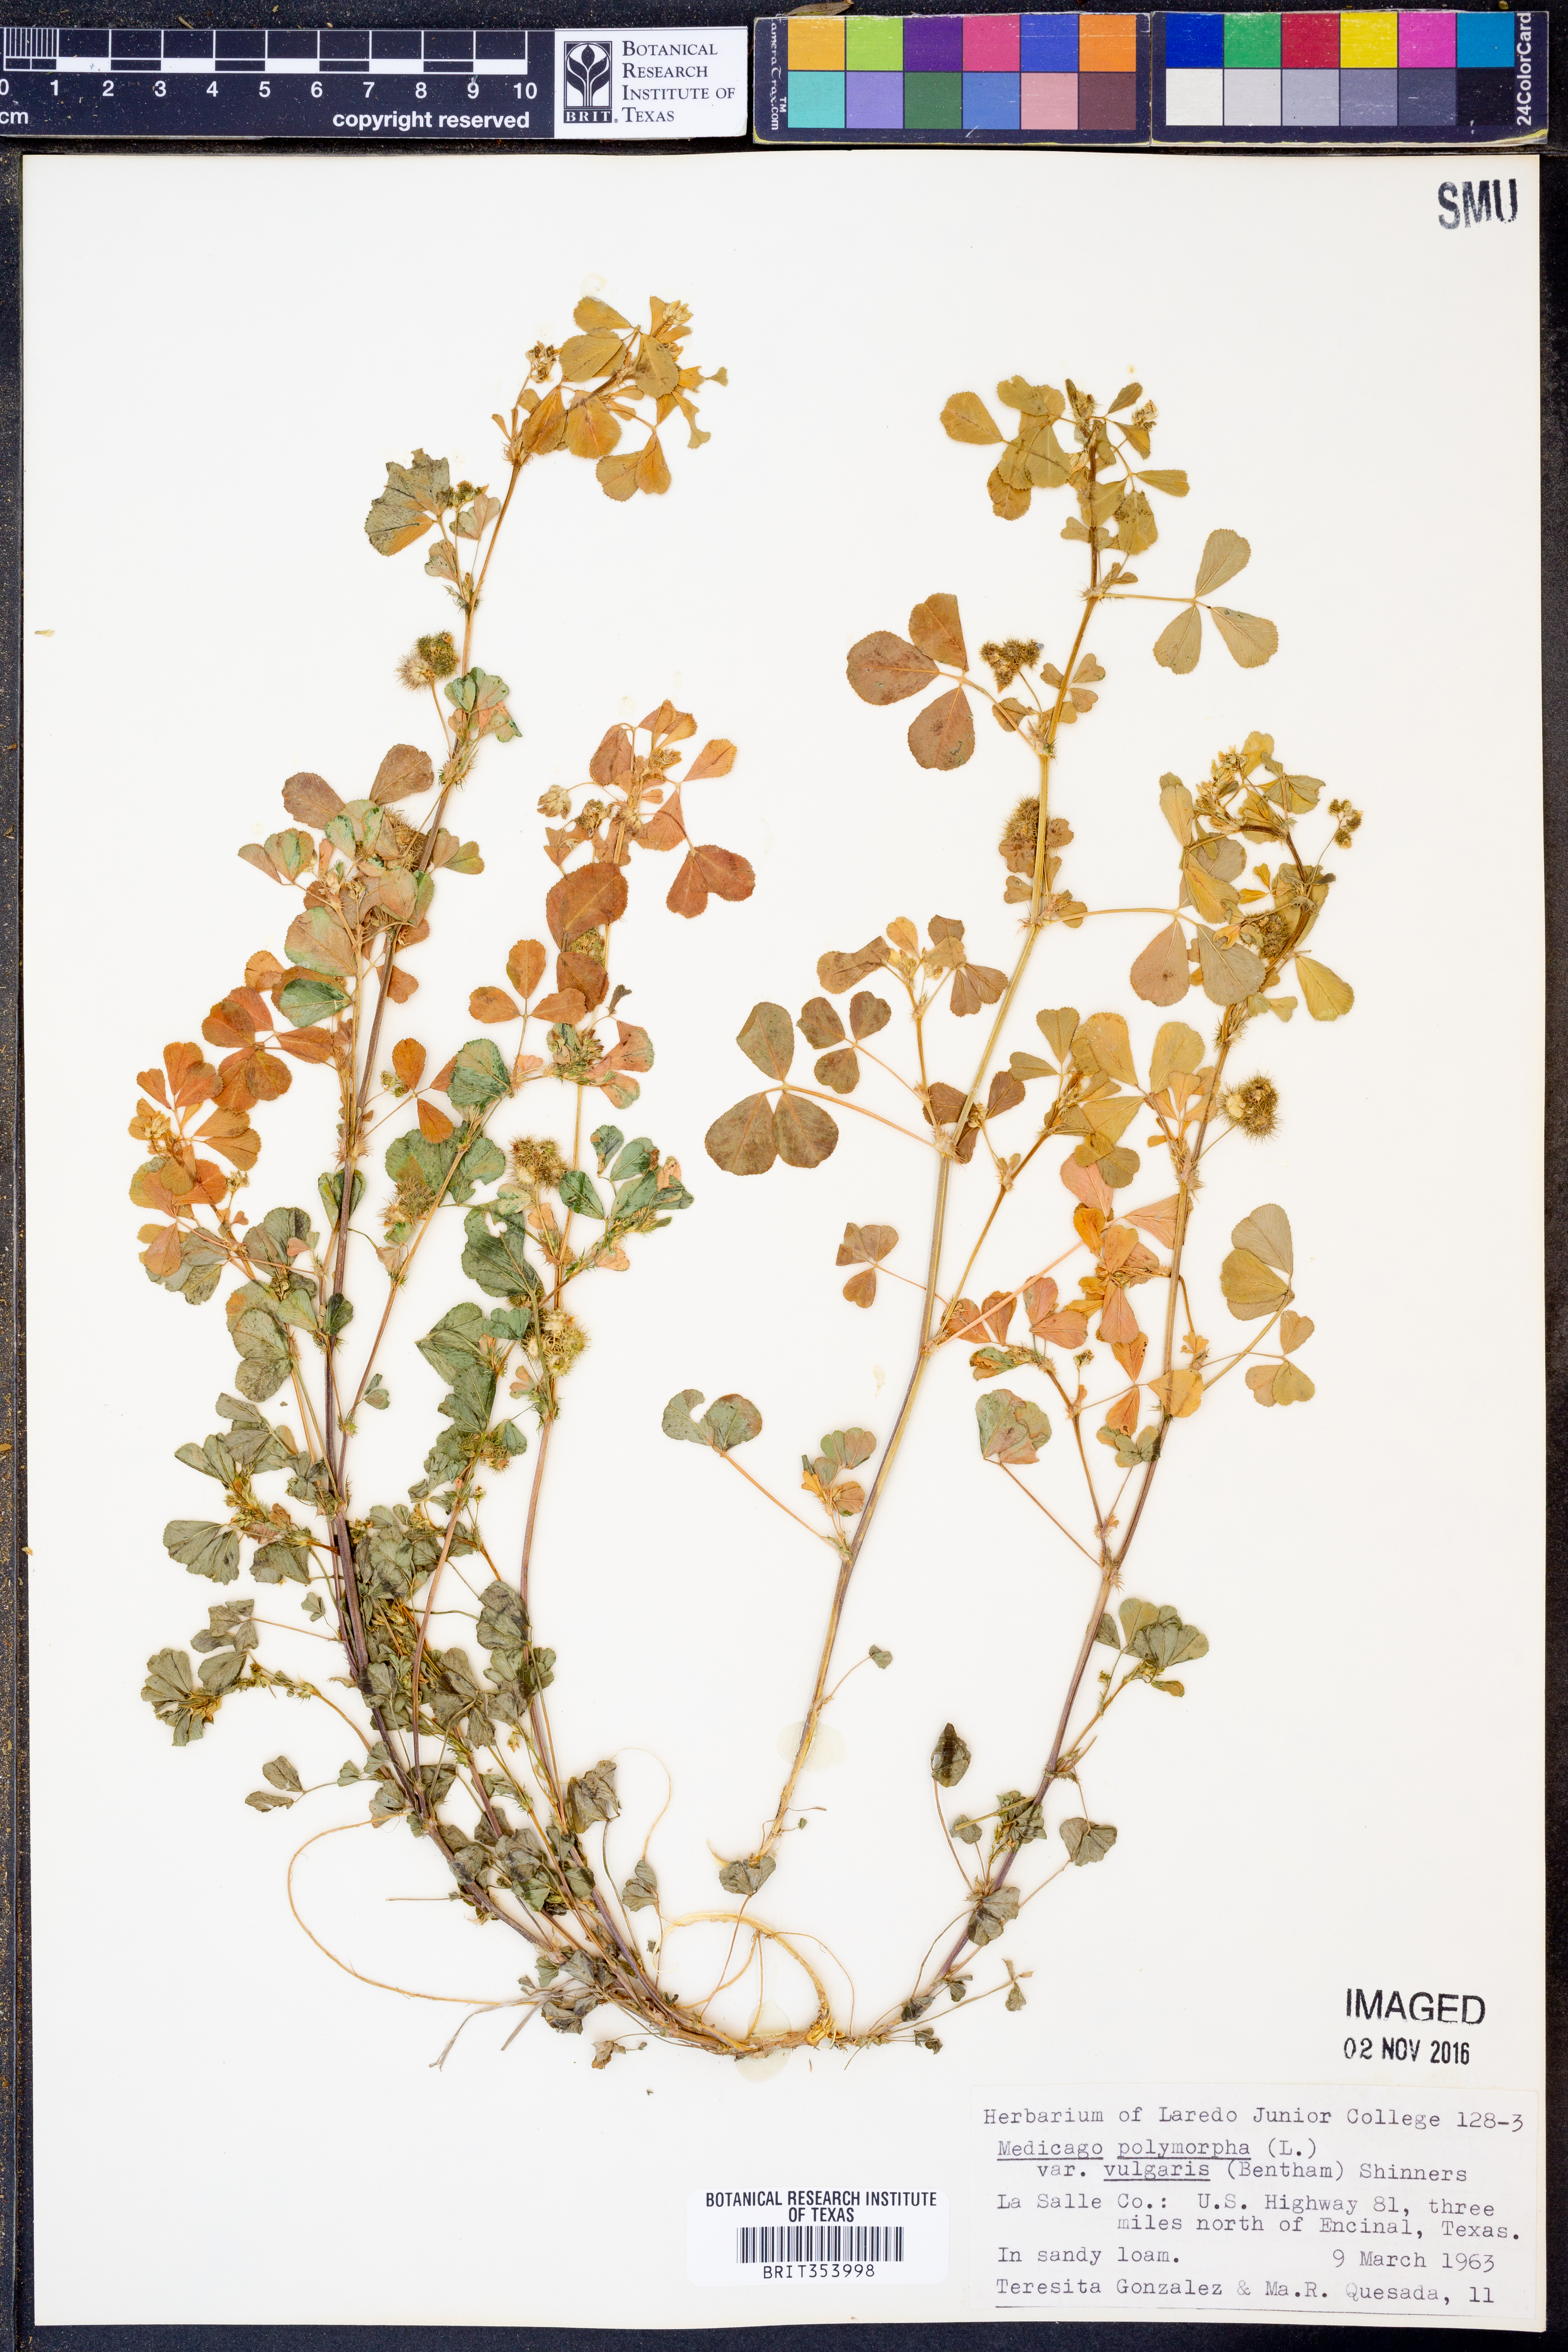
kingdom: Plantae
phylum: Tracheophyta
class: Magnoliopsida
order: Fabales
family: Fabaceae
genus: Medicago
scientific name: Medicago polymorpha
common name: Burclover
